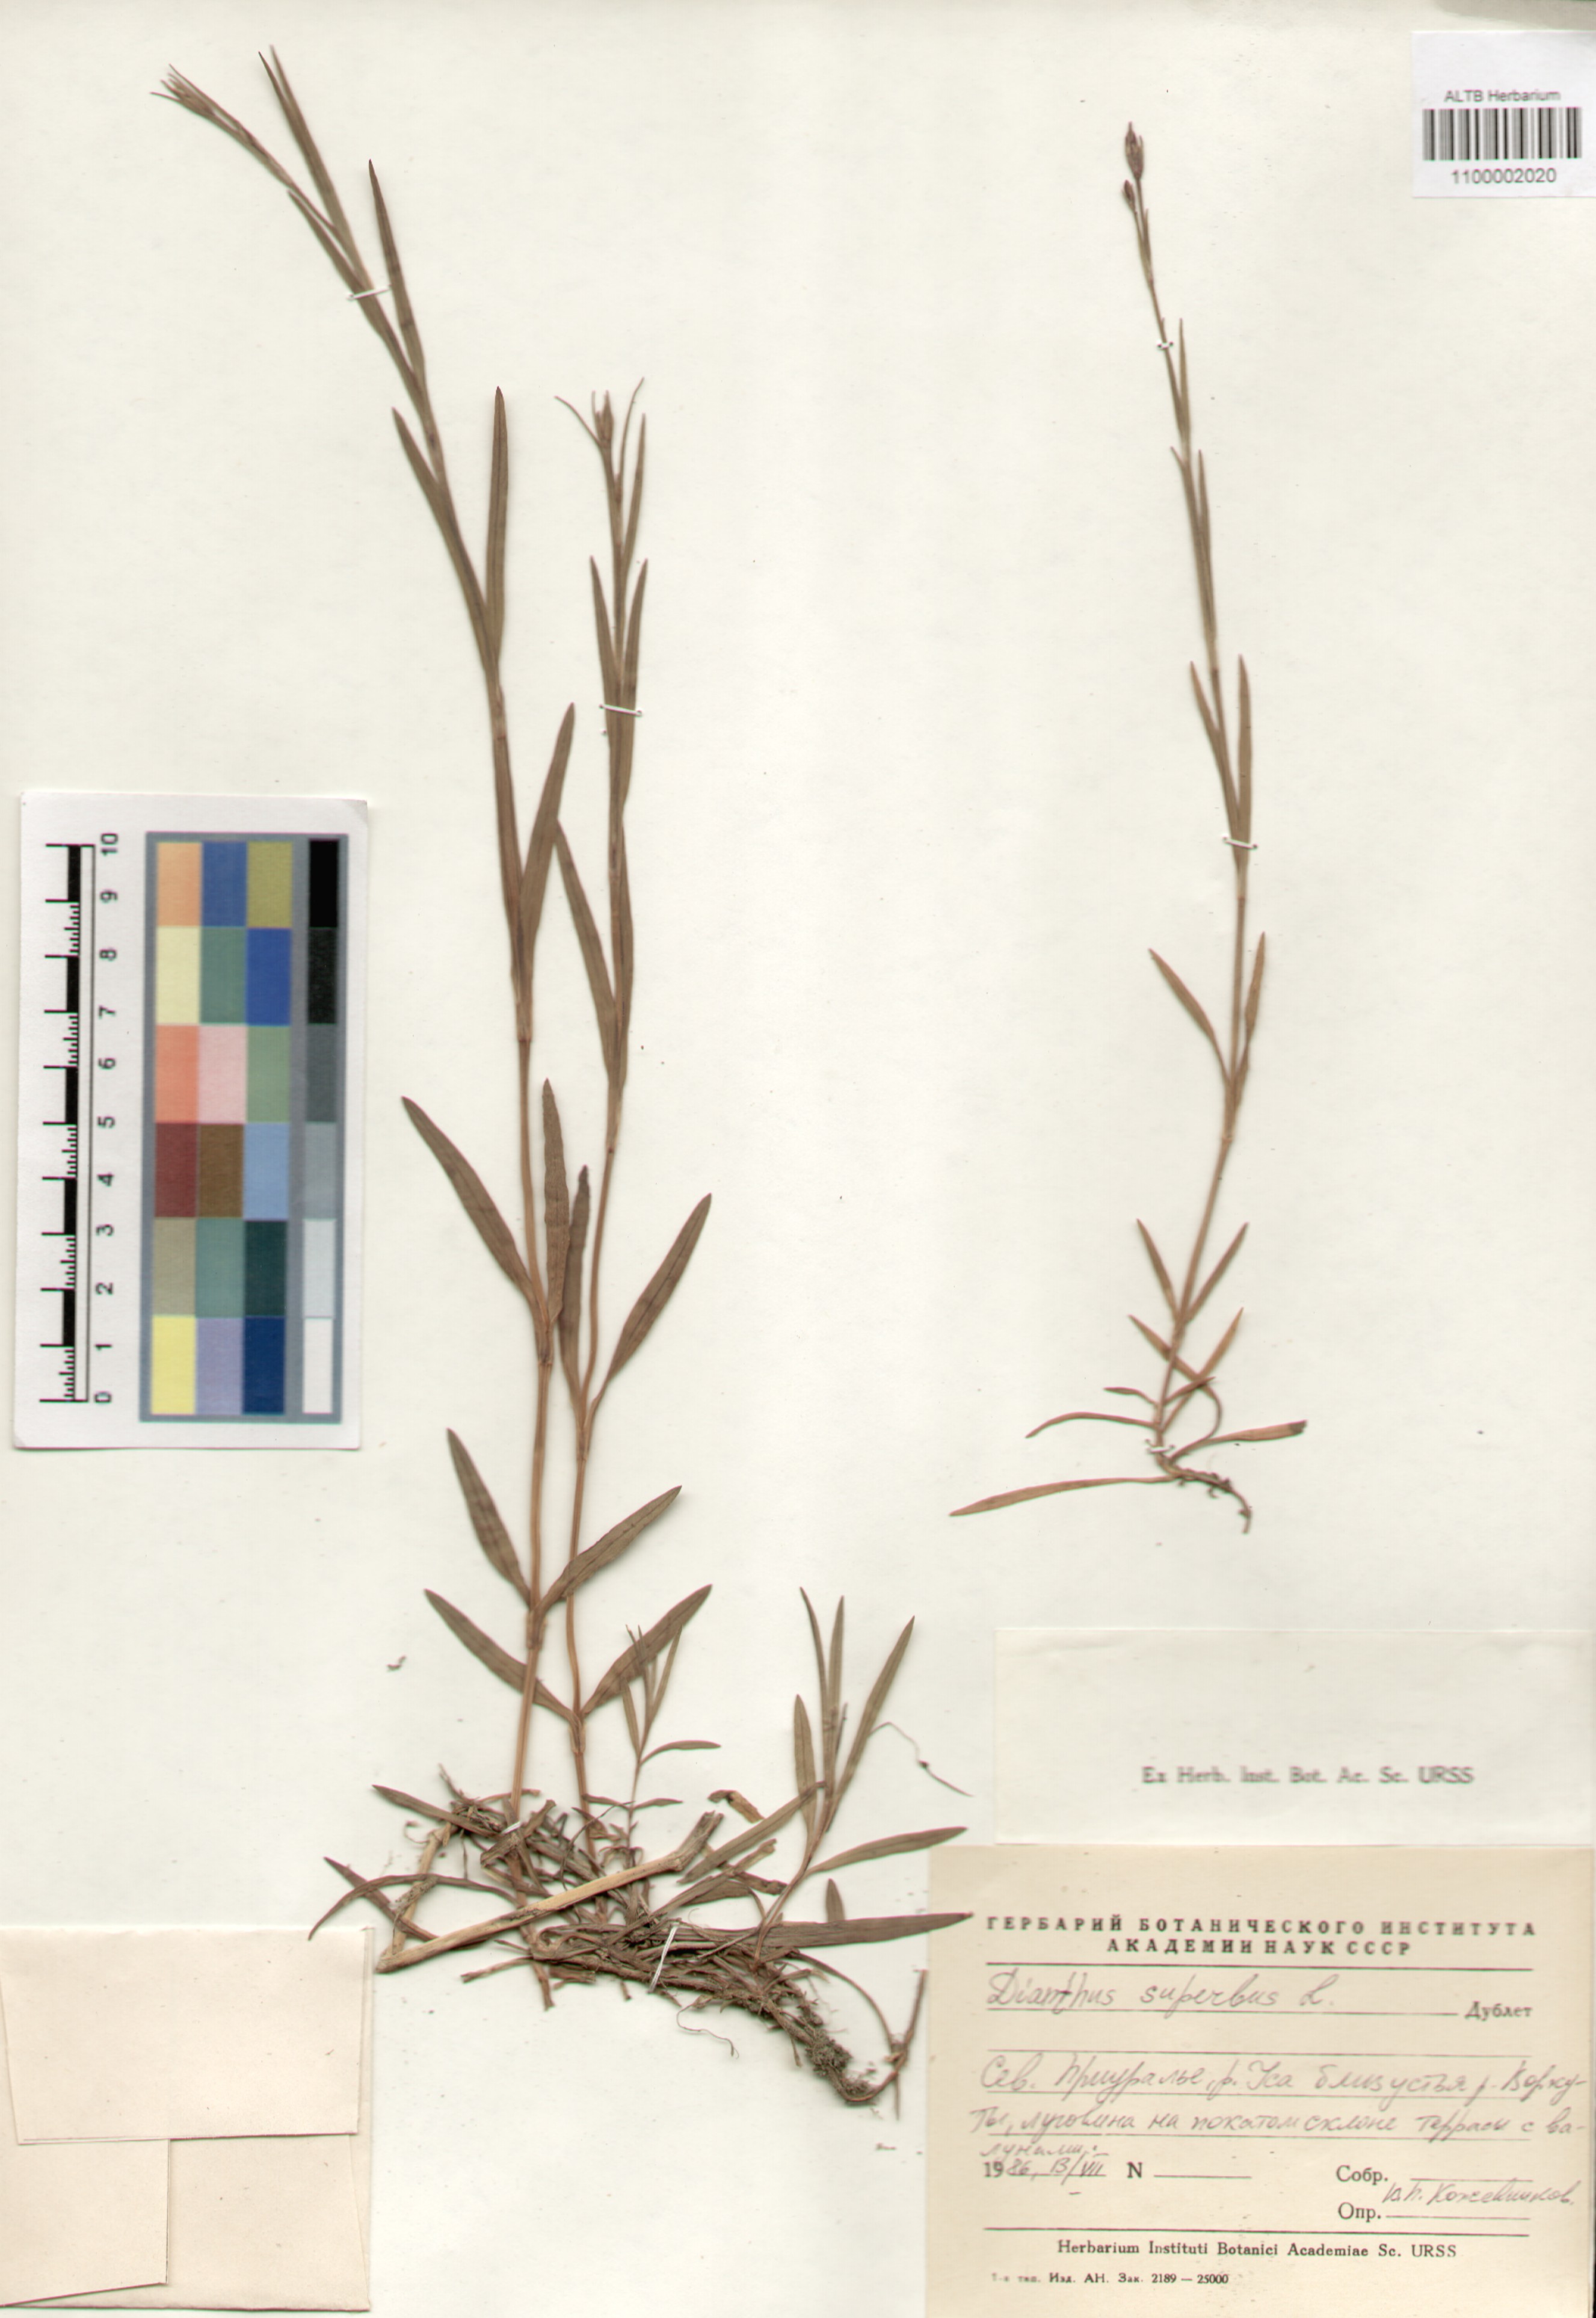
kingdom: Plantae
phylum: Tracheophyta
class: Magnoliopsida
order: Caryophyllales
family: Caryophyllaceae
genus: Dianthus
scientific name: Dianthus superbus
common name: Fringed pink
